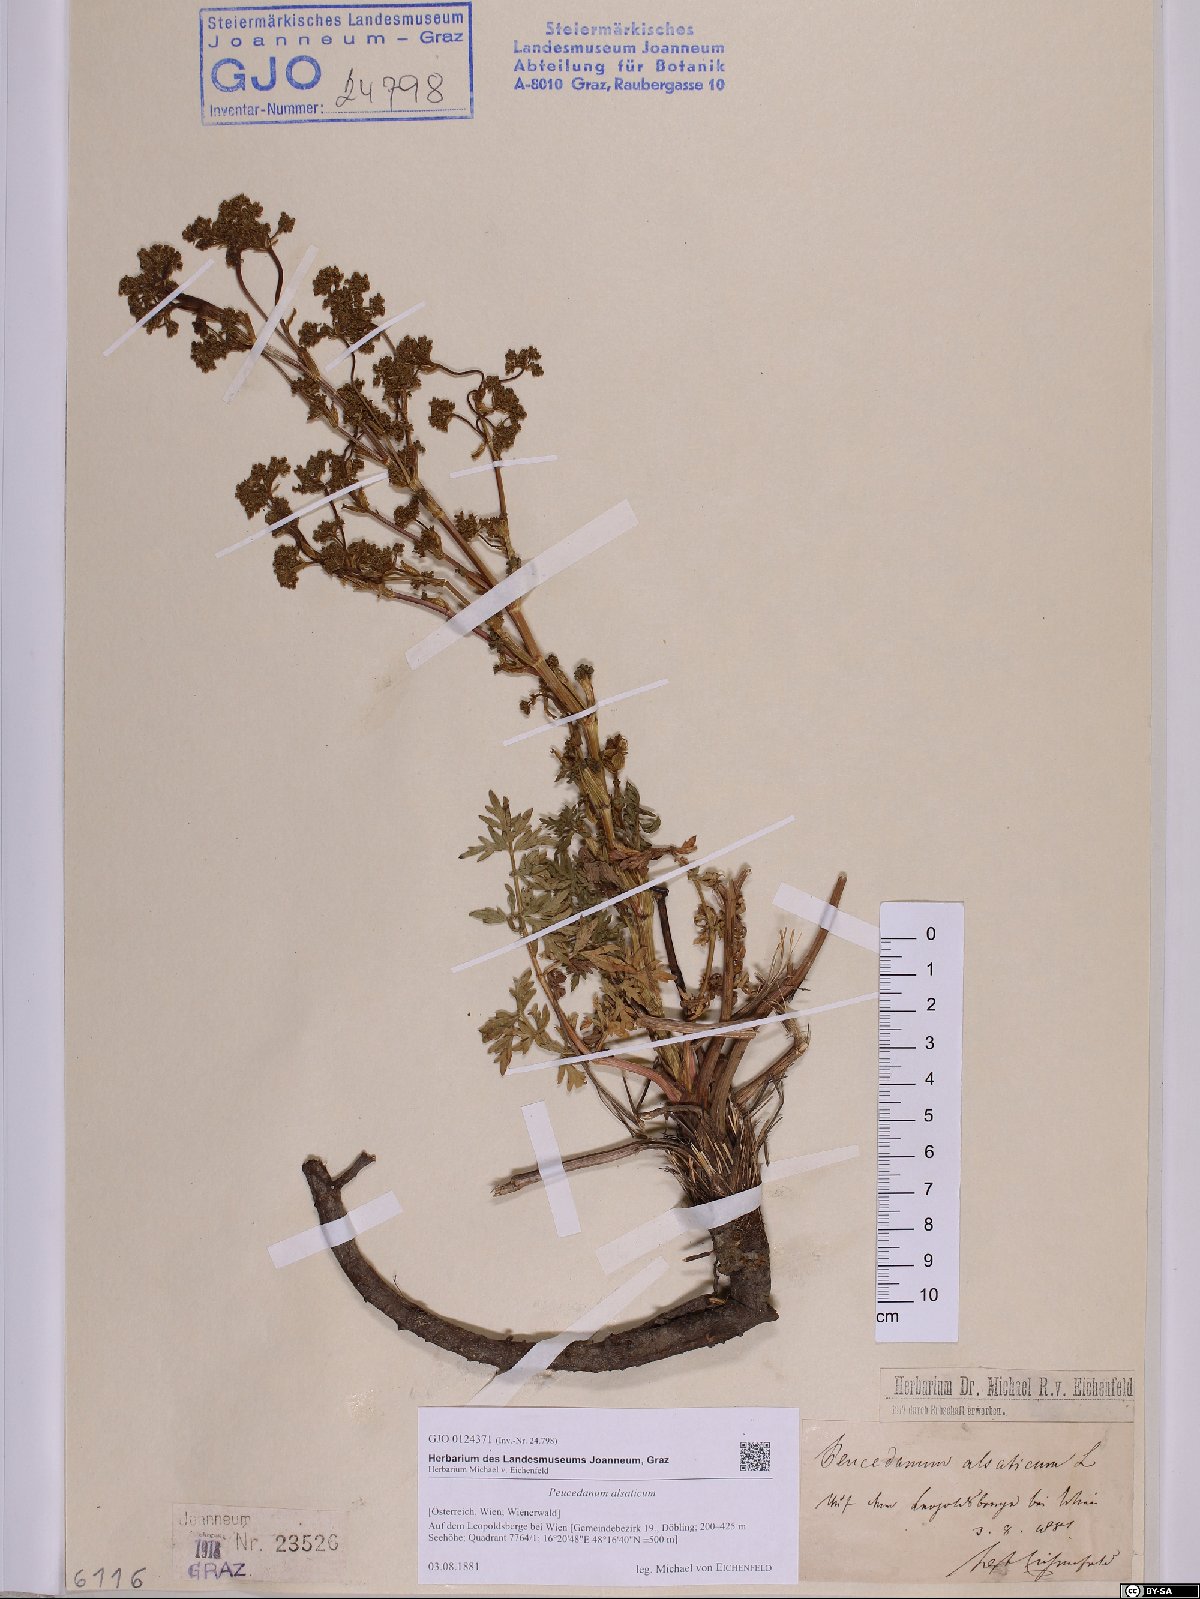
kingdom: Plantae
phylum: Tracheophyta
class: Magnoliopsida
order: Apiales
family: Apiaceae
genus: Xanthoselinum
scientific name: Xanthoselinum alsaticum
